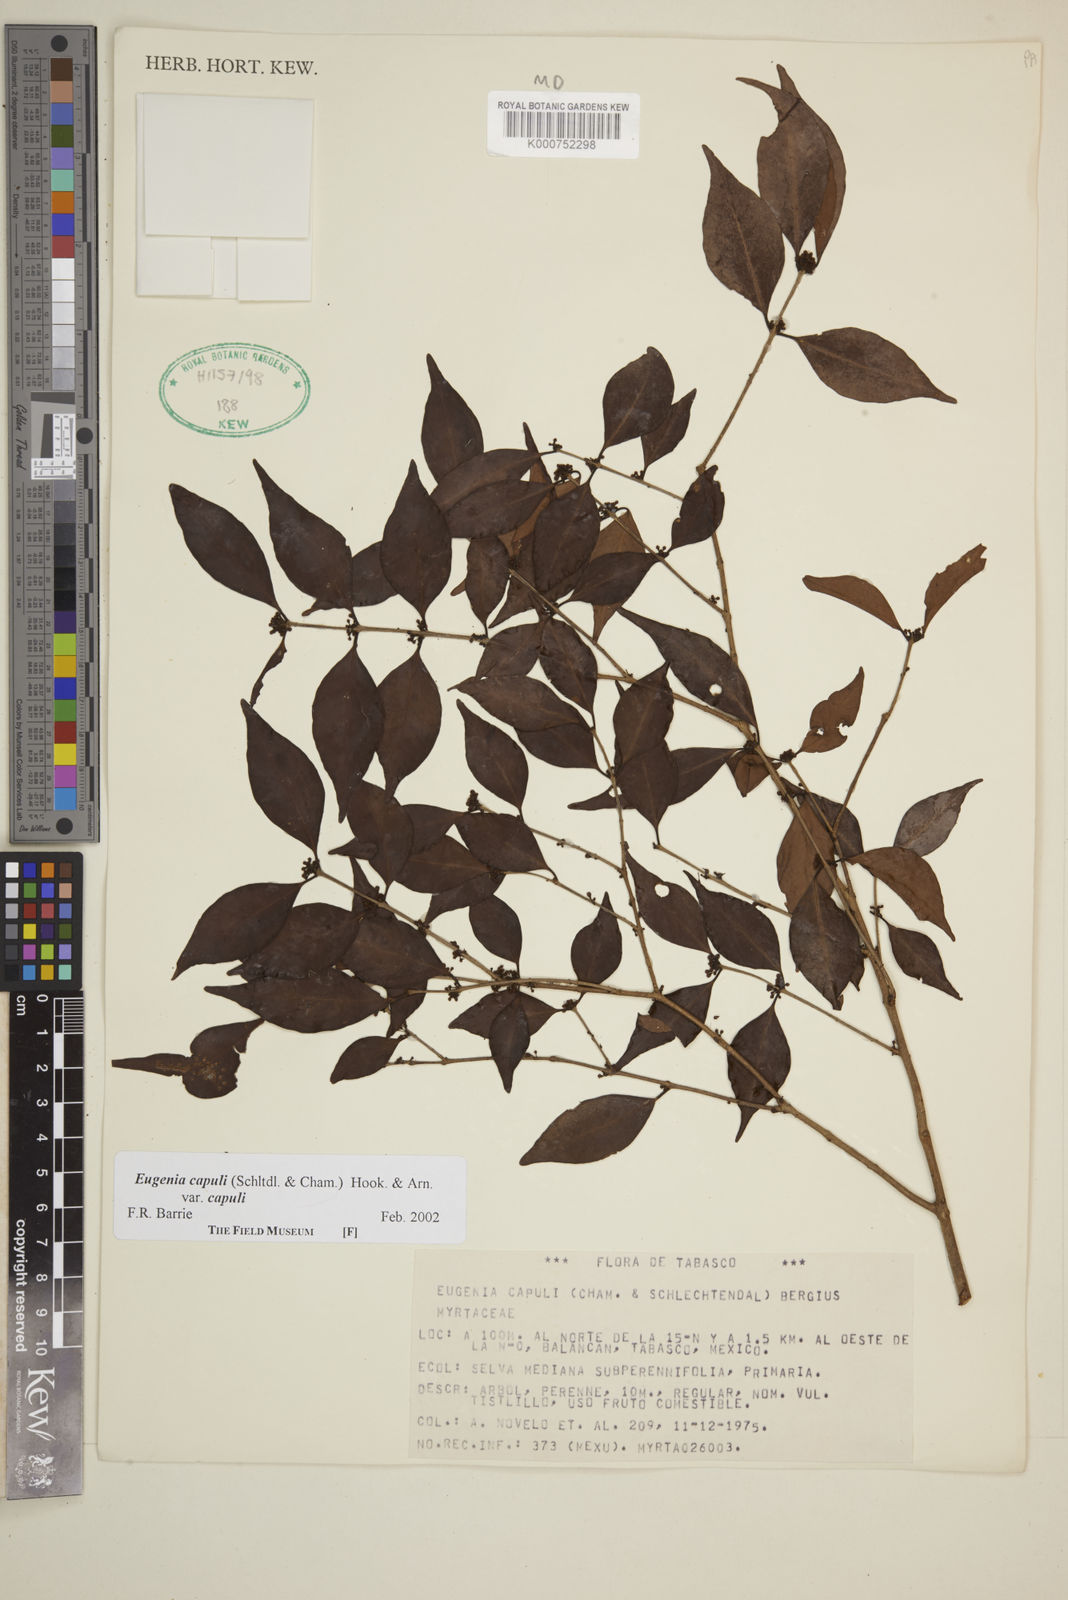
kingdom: Plantae
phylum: Tracheophyta
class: Magnoliopsida
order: Myrtales
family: Myrtaceae
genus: Eugenia
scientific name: Eugenia capuli
